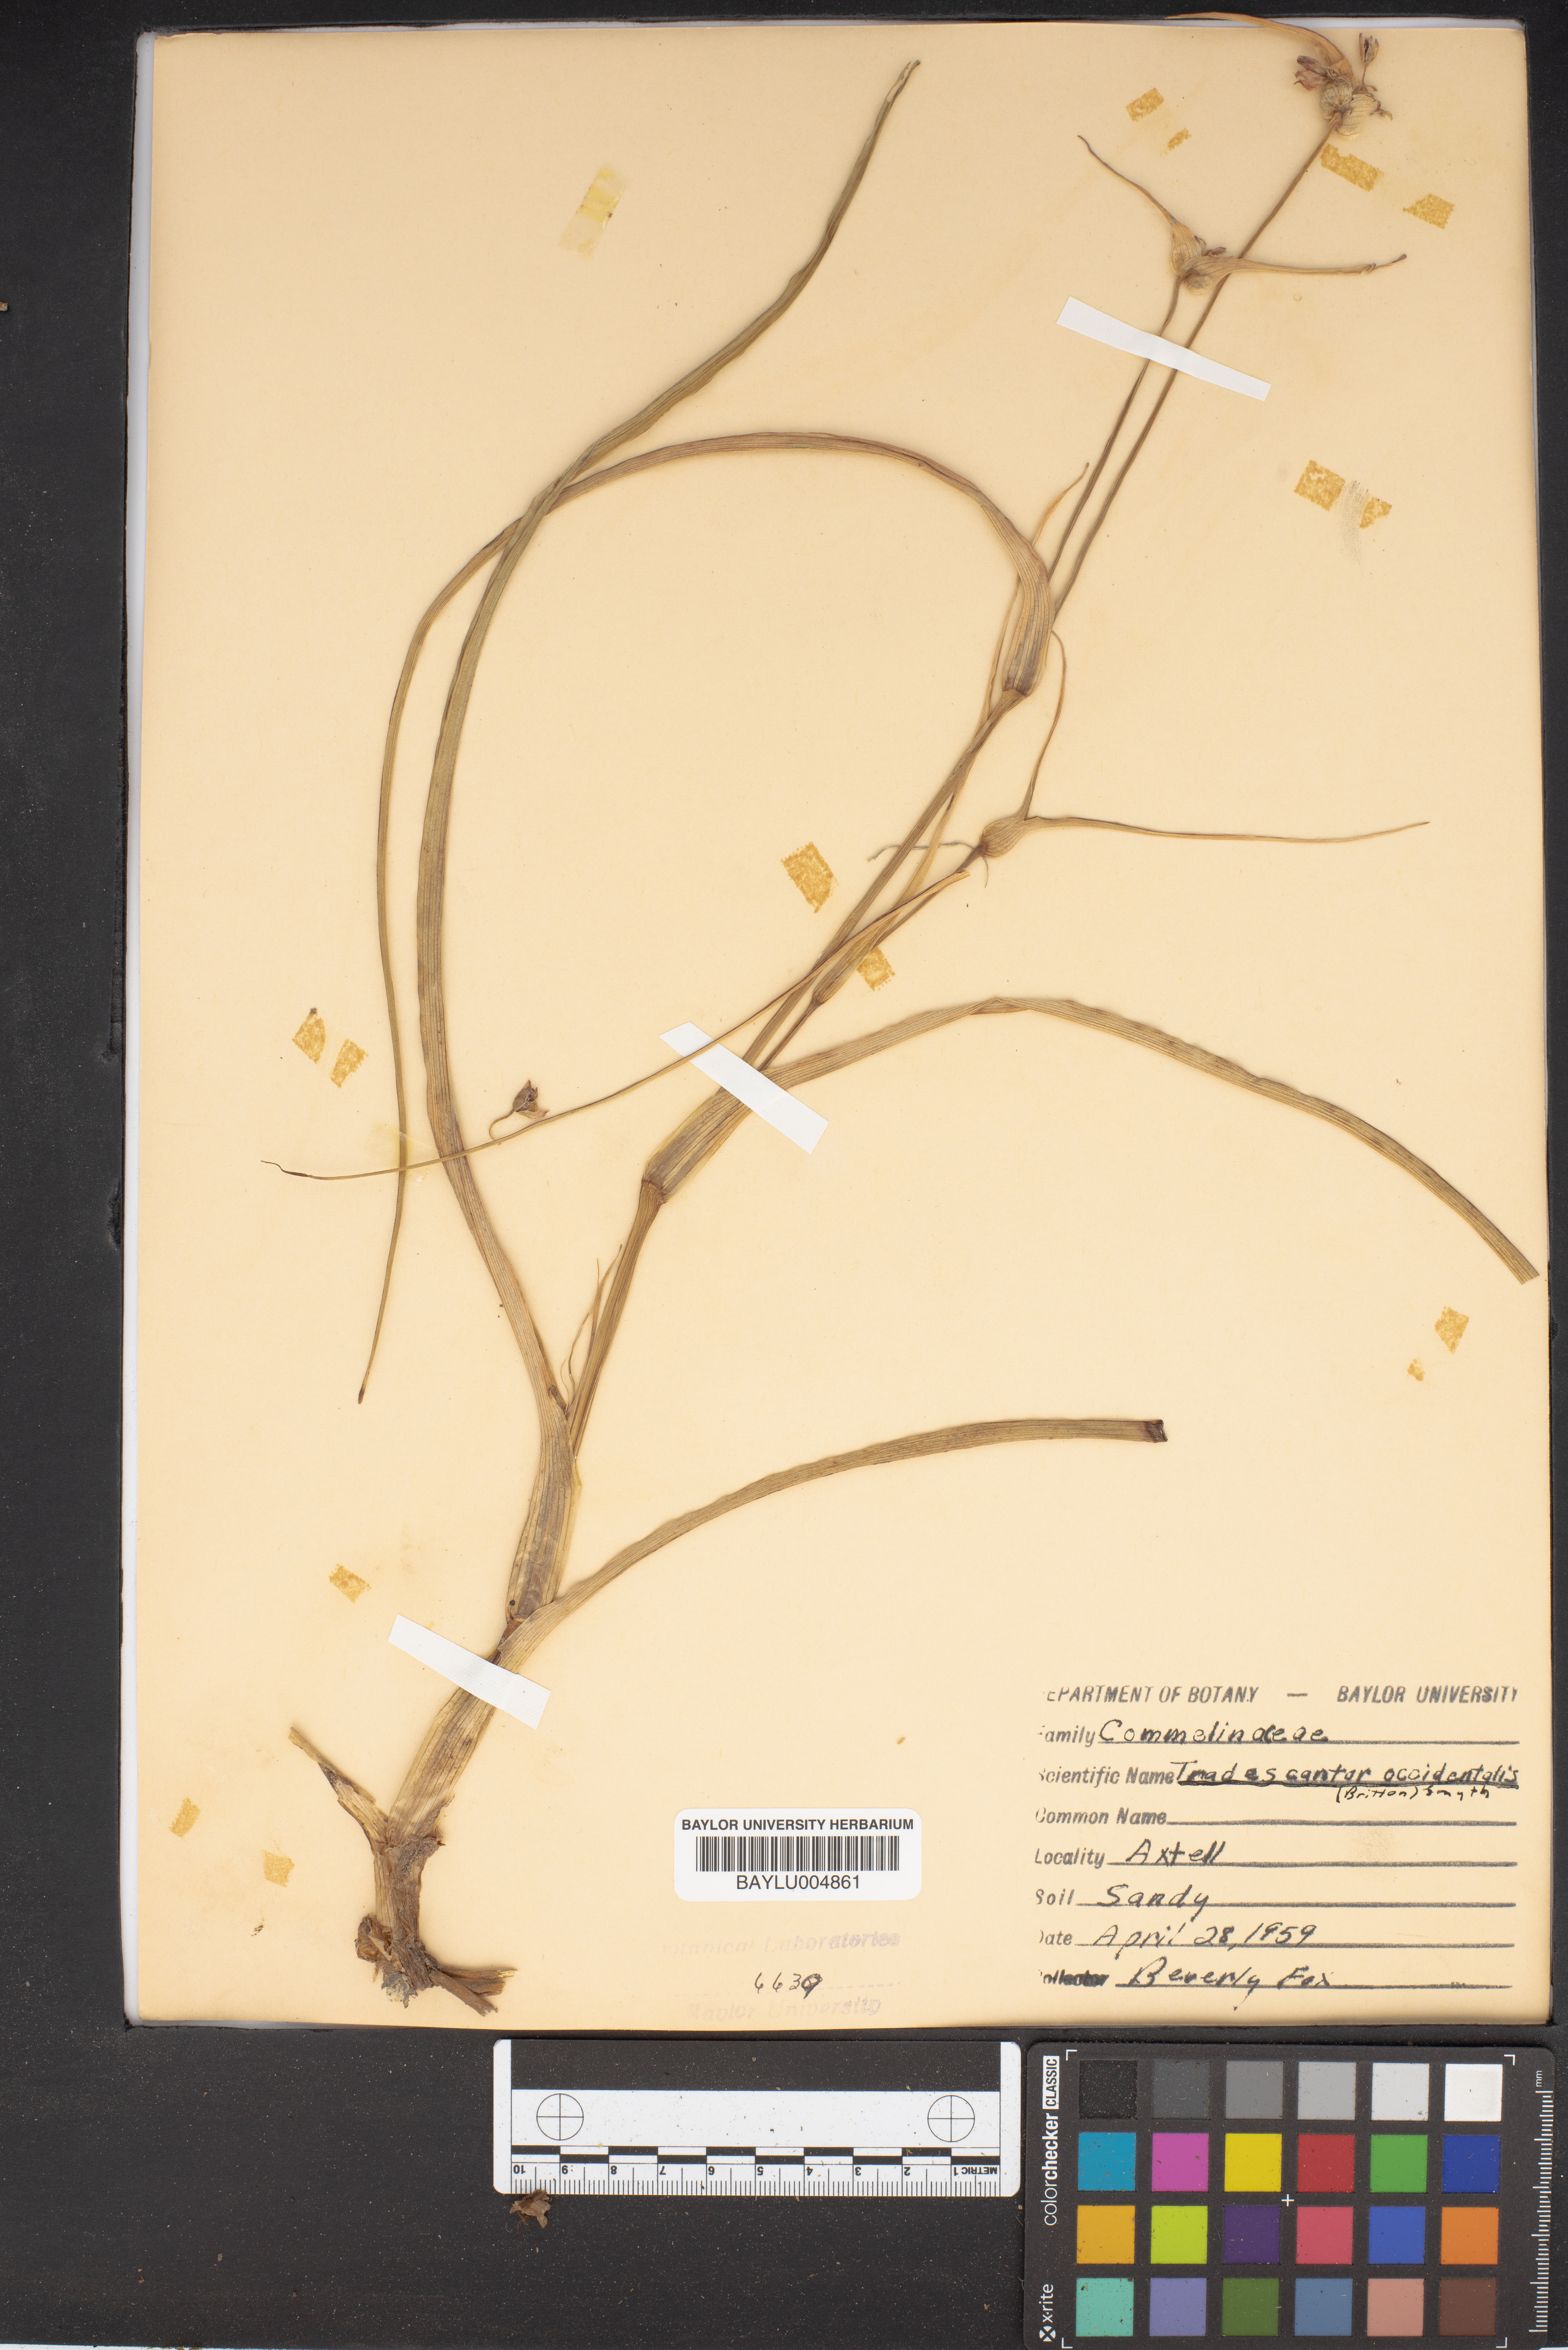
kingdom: Plantae
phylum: Tracheophyta
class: Liliopsida
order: Commelinales
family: Commelinaceae
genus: Tradescantia
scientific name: Tradescantia occidentalis
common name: Prairie spiderwort
